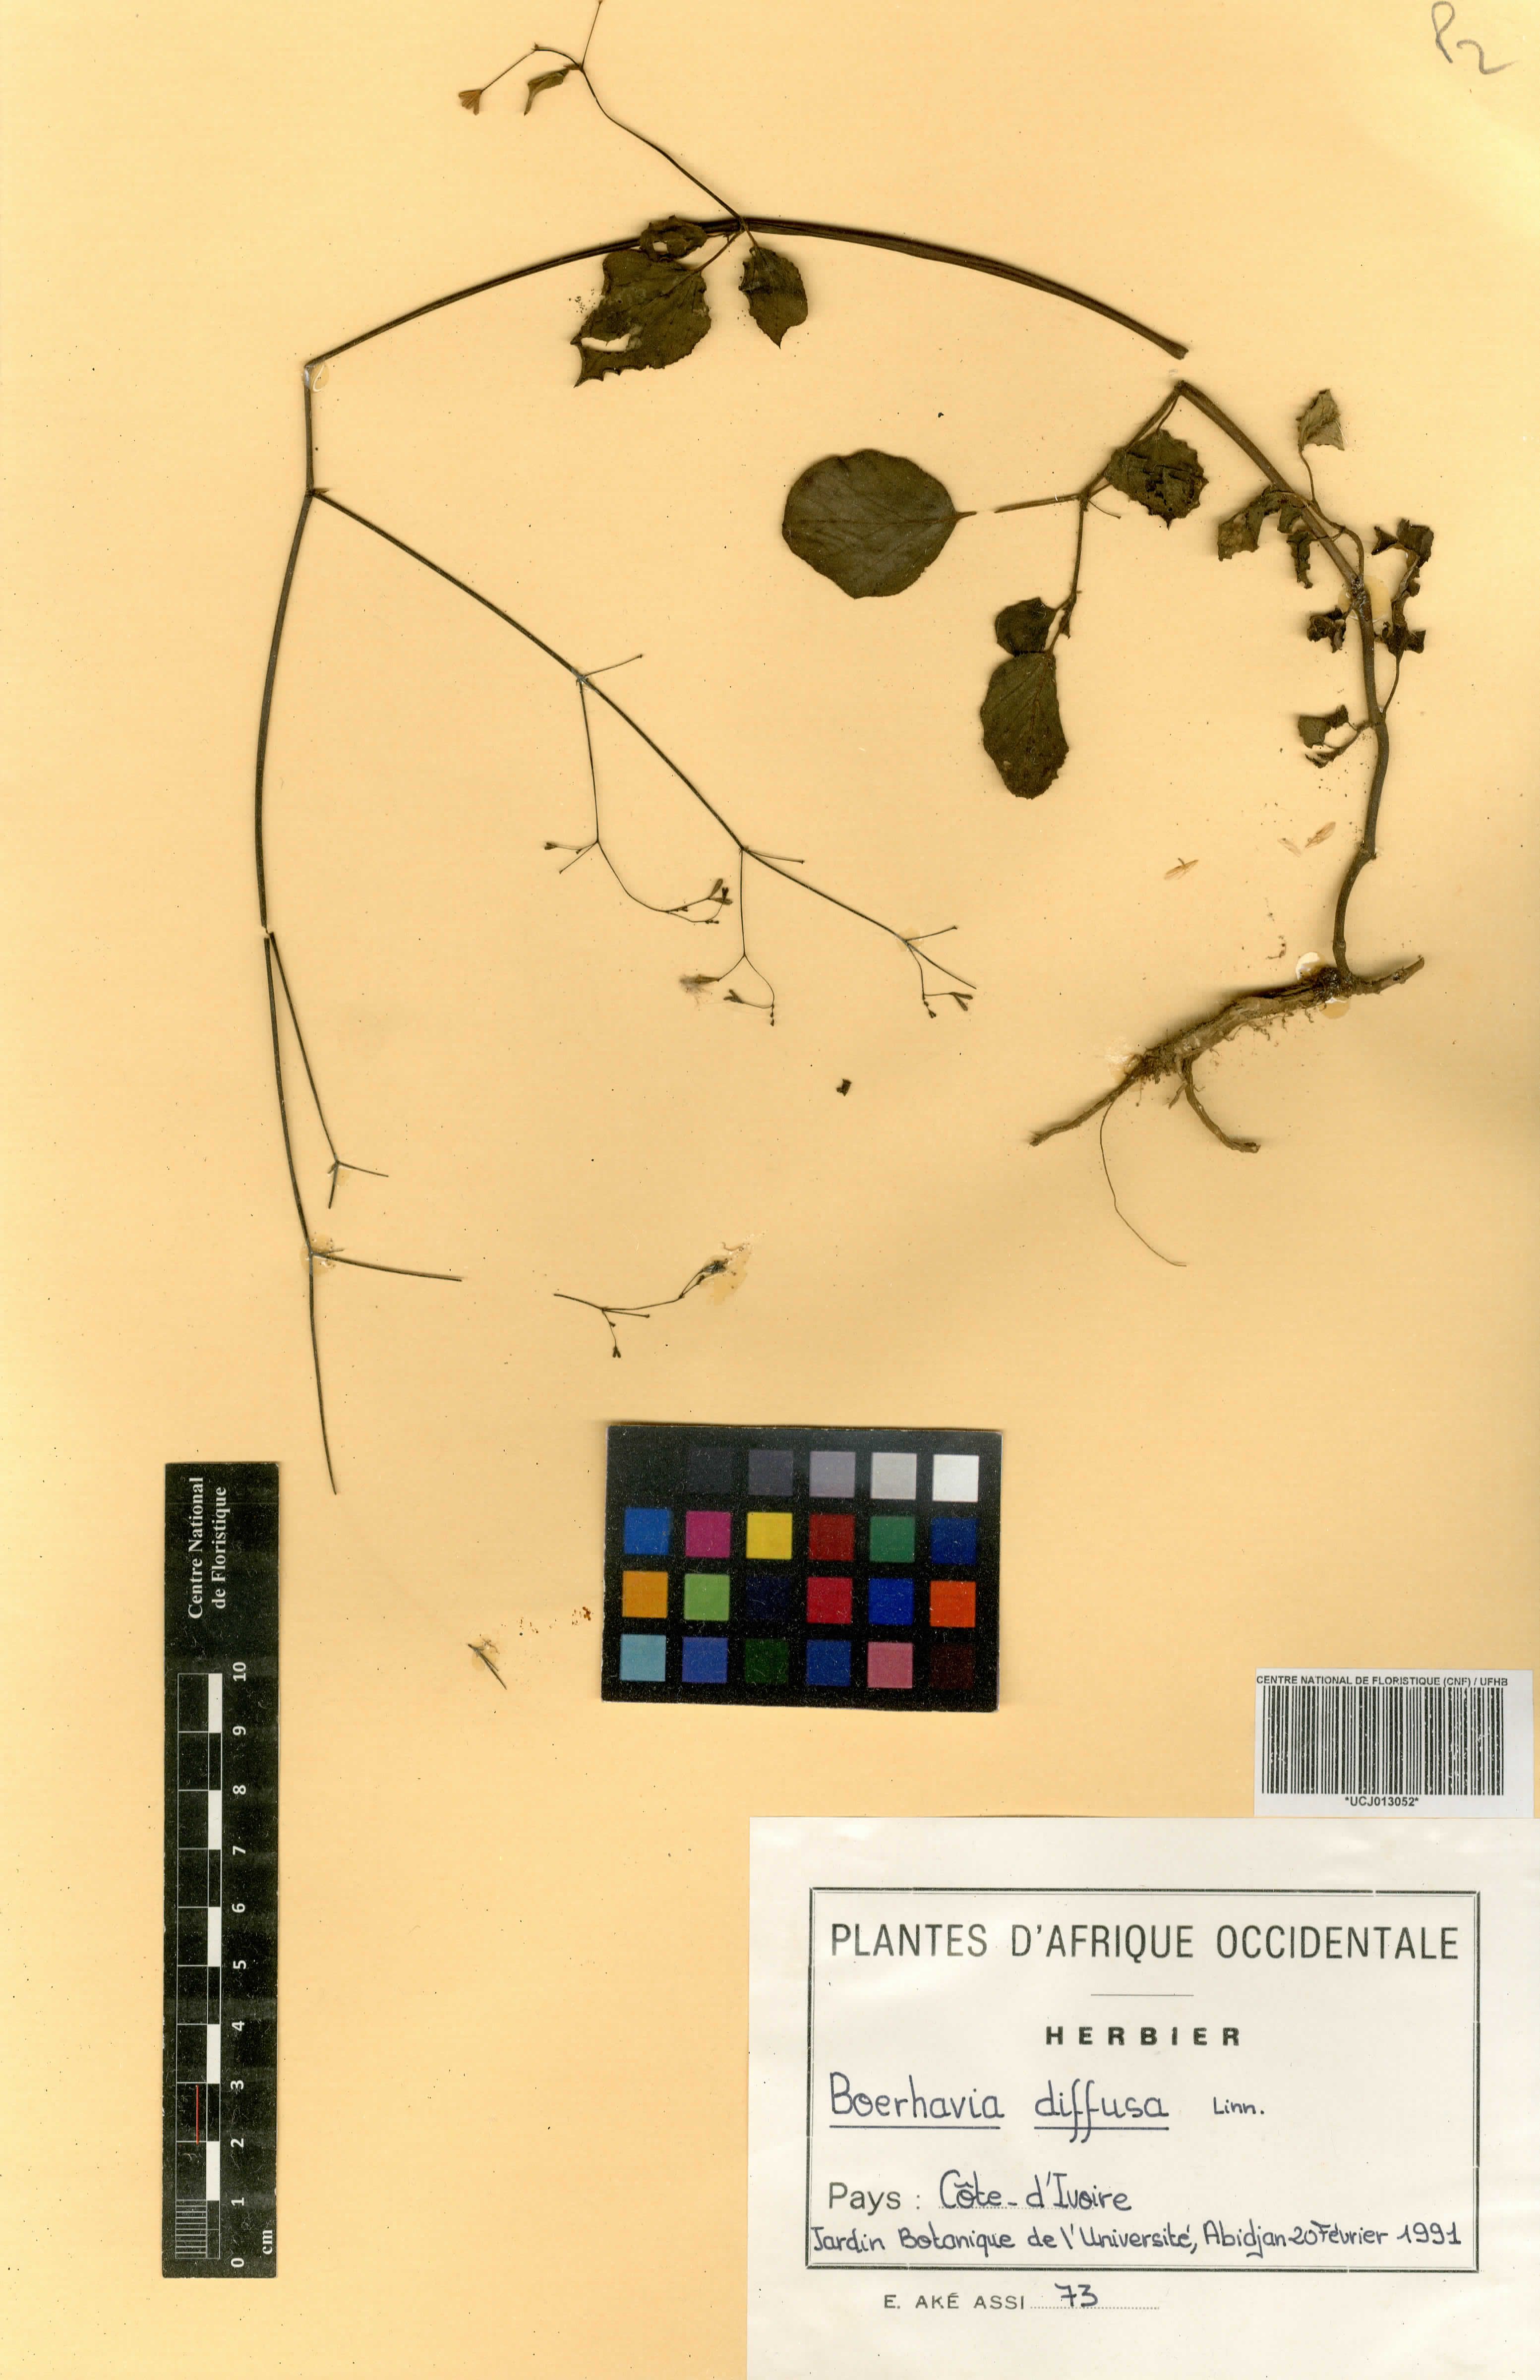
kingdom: Plantae
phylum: Tracheophyta
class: Magnoliopsida
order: Caryophyllales
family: Nyctaginaceae
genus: Boerhavia
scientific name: Boerhavia diffusa
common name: Red spiderling
